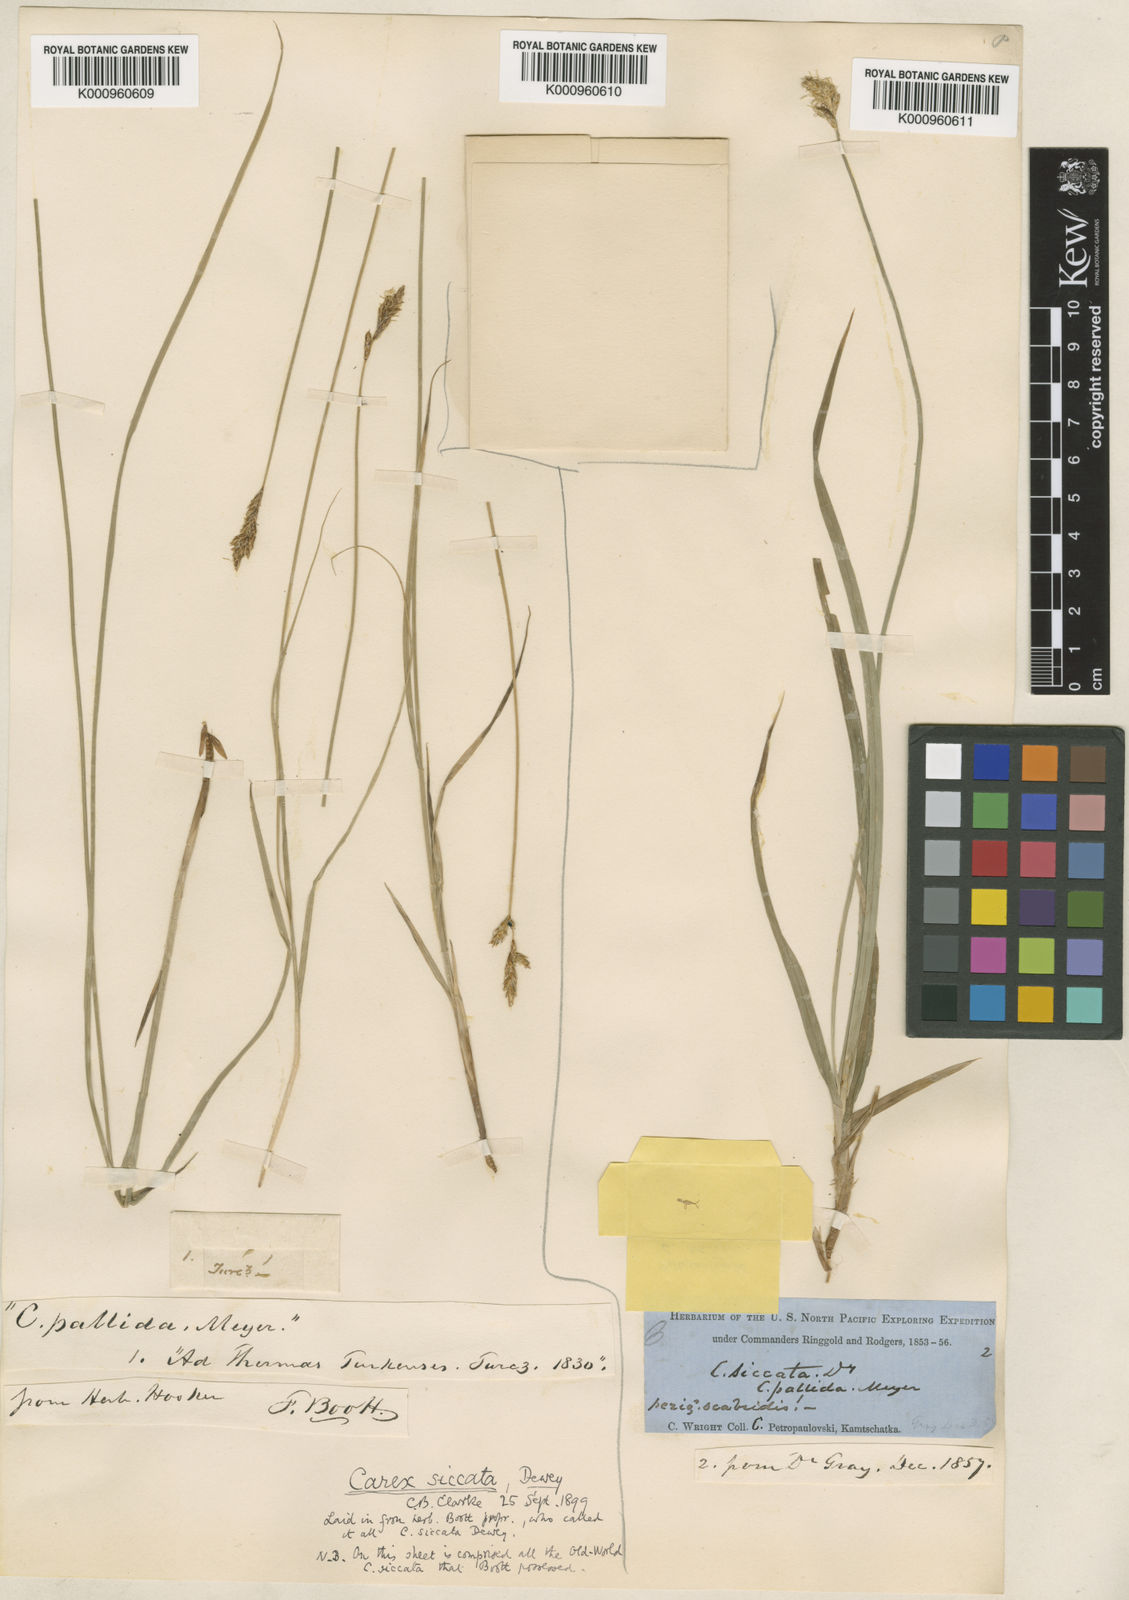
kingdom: Plantae
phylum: Tracheophyta
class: Liliopsida
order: Poales
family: Cyperaceae
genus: Carex
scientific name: Carex accrescens
